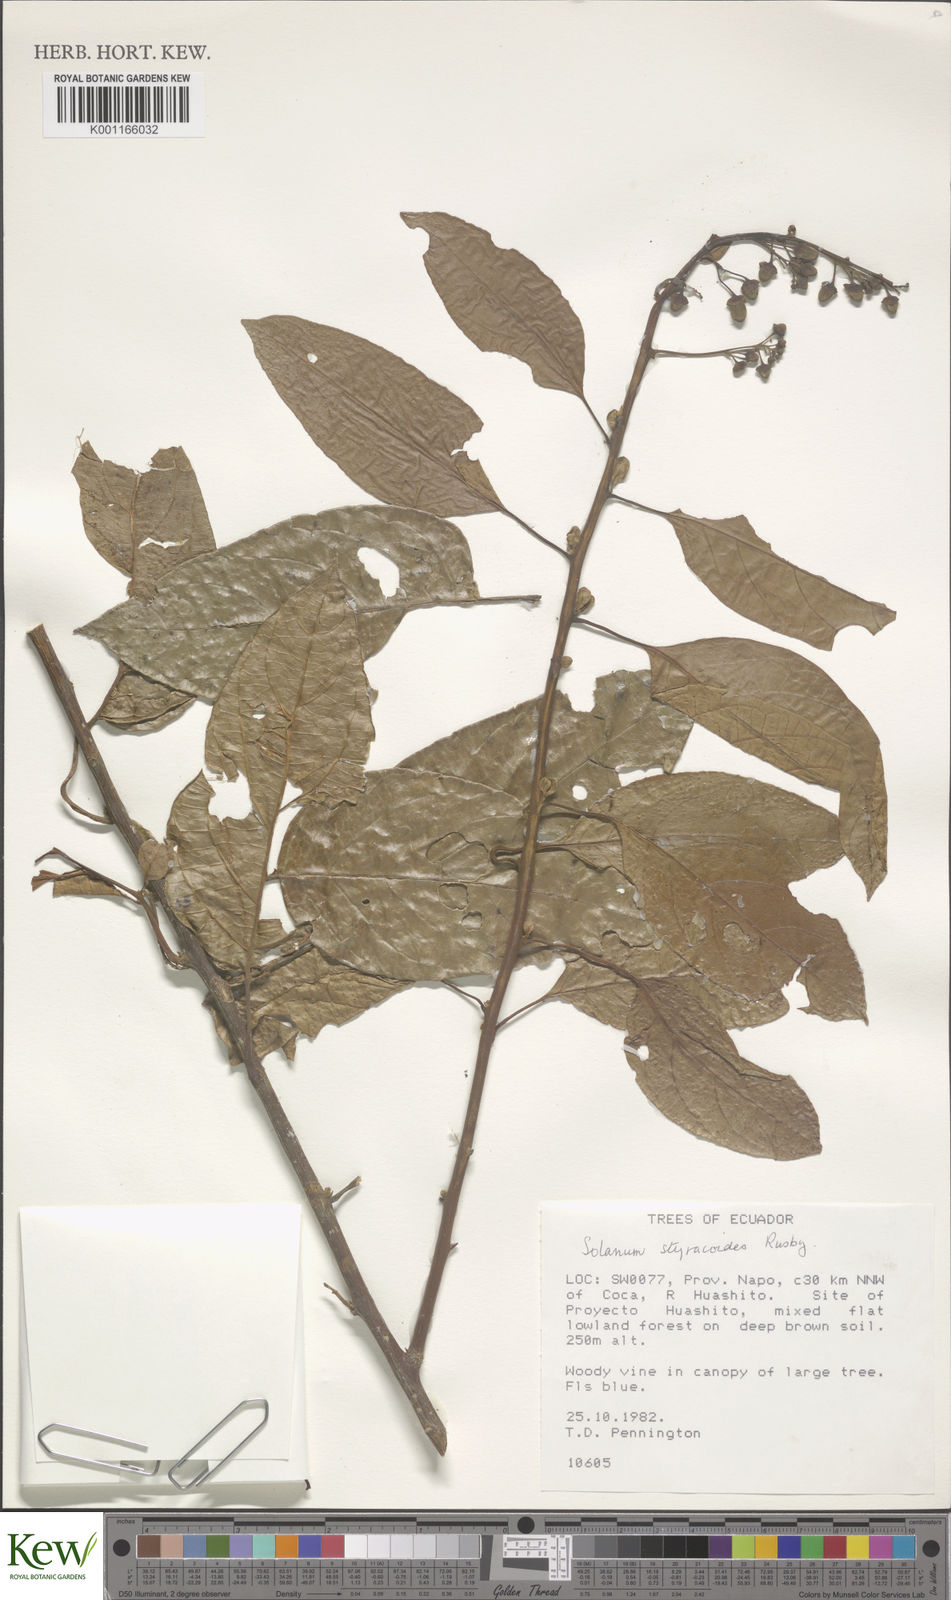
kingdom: Plantae
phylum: Tracheophyta
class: Magnoliopsida
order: Solanales
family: Solanaceae
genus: Solanum
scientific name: Solanum uncinellum
